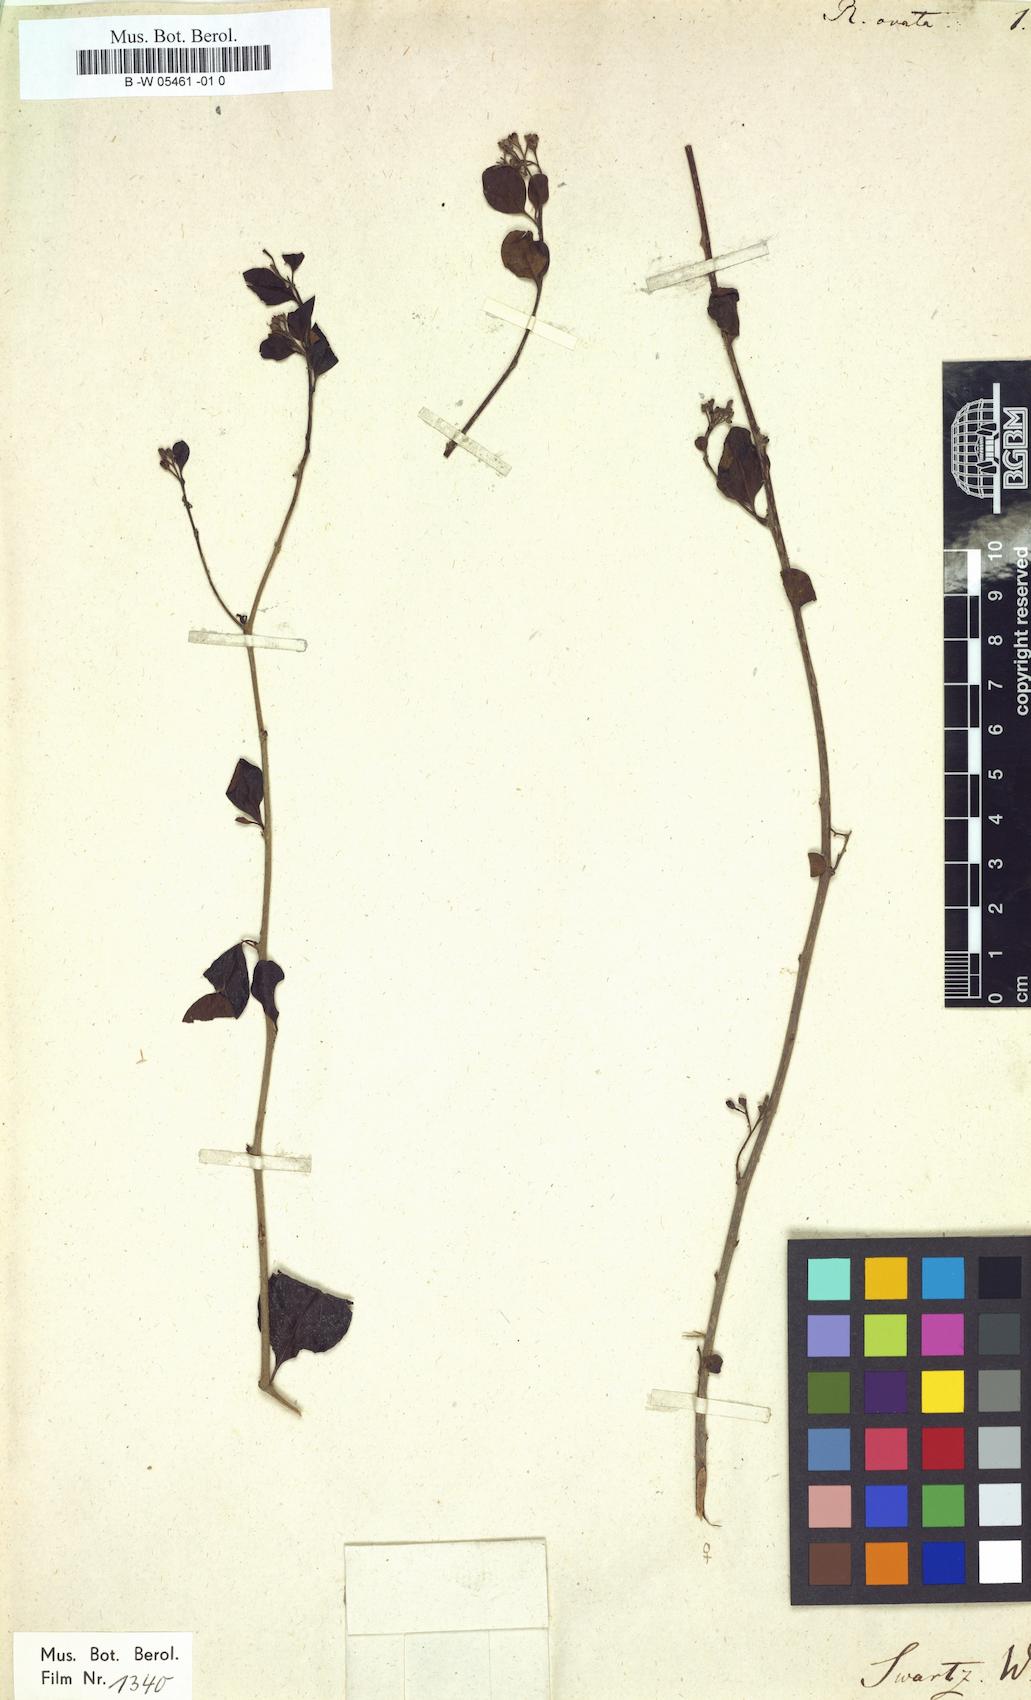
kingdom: Plantae
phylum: Tracheophyta
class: Magnoliopsida
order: Boraginales
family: Ehretiaceae
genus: Rochefortia
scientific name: Rochefortia cuneata
